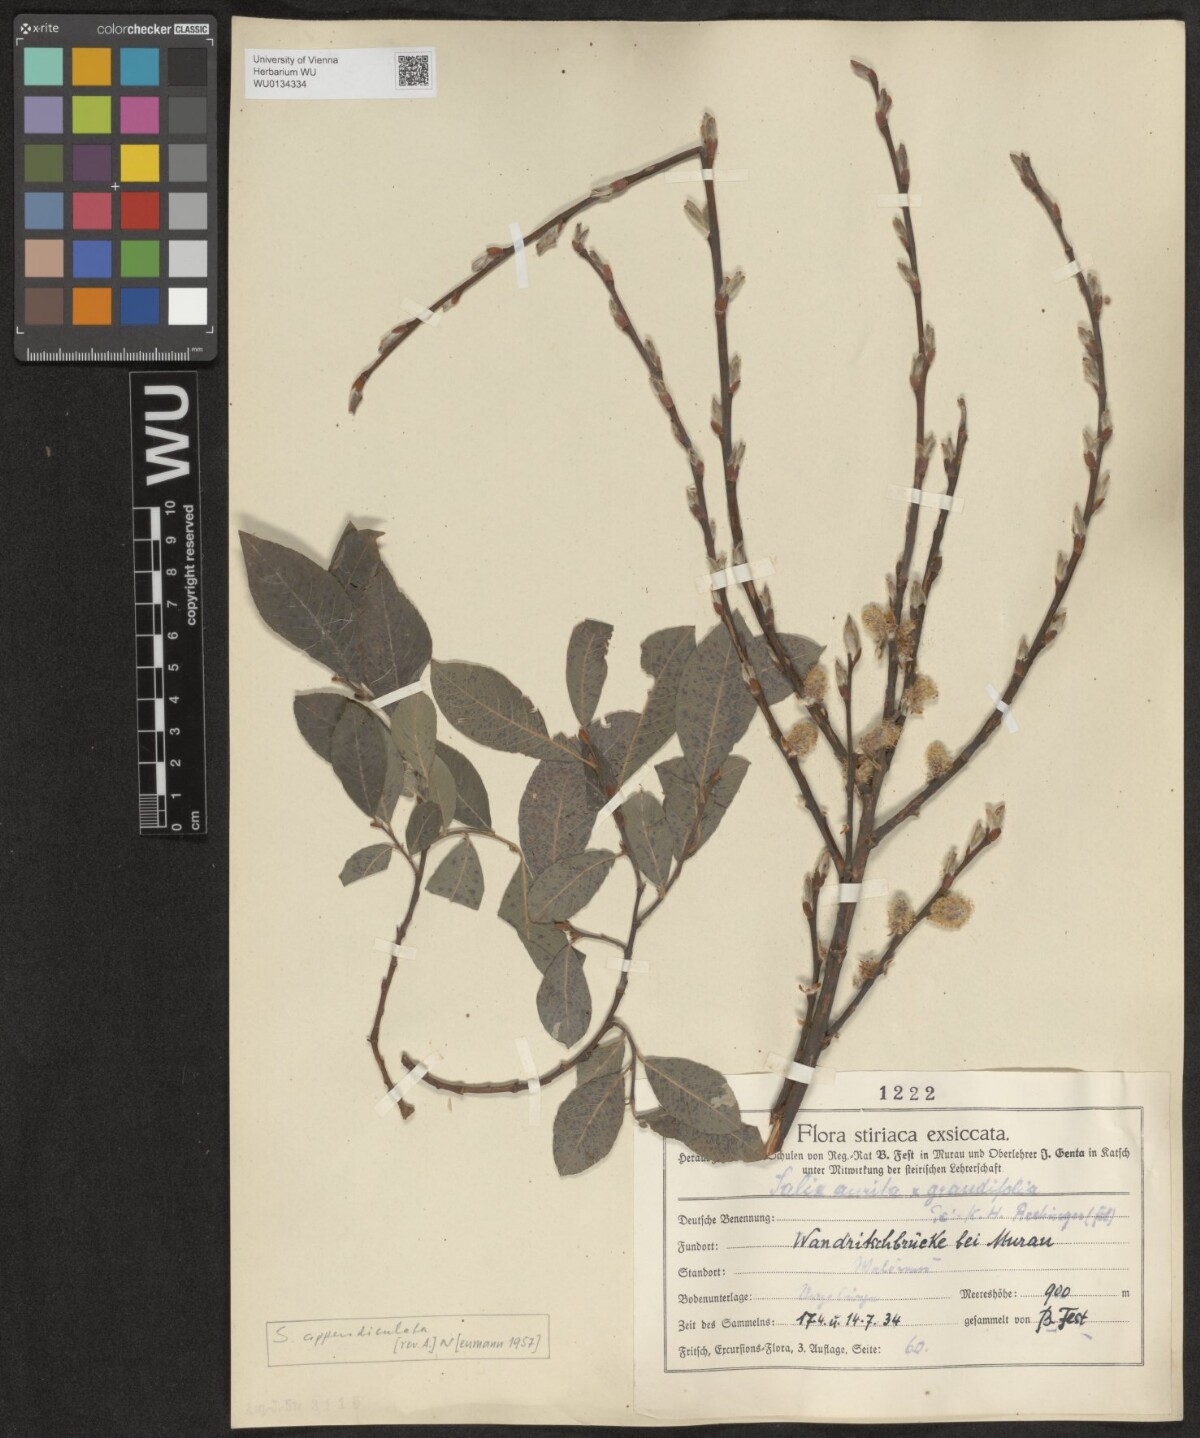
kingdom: Plantae
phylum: Tracheophyta
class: Magnoliopsida
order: Malpighiales
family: Salicaceae
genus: Salix
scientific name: Salix appendiculata
